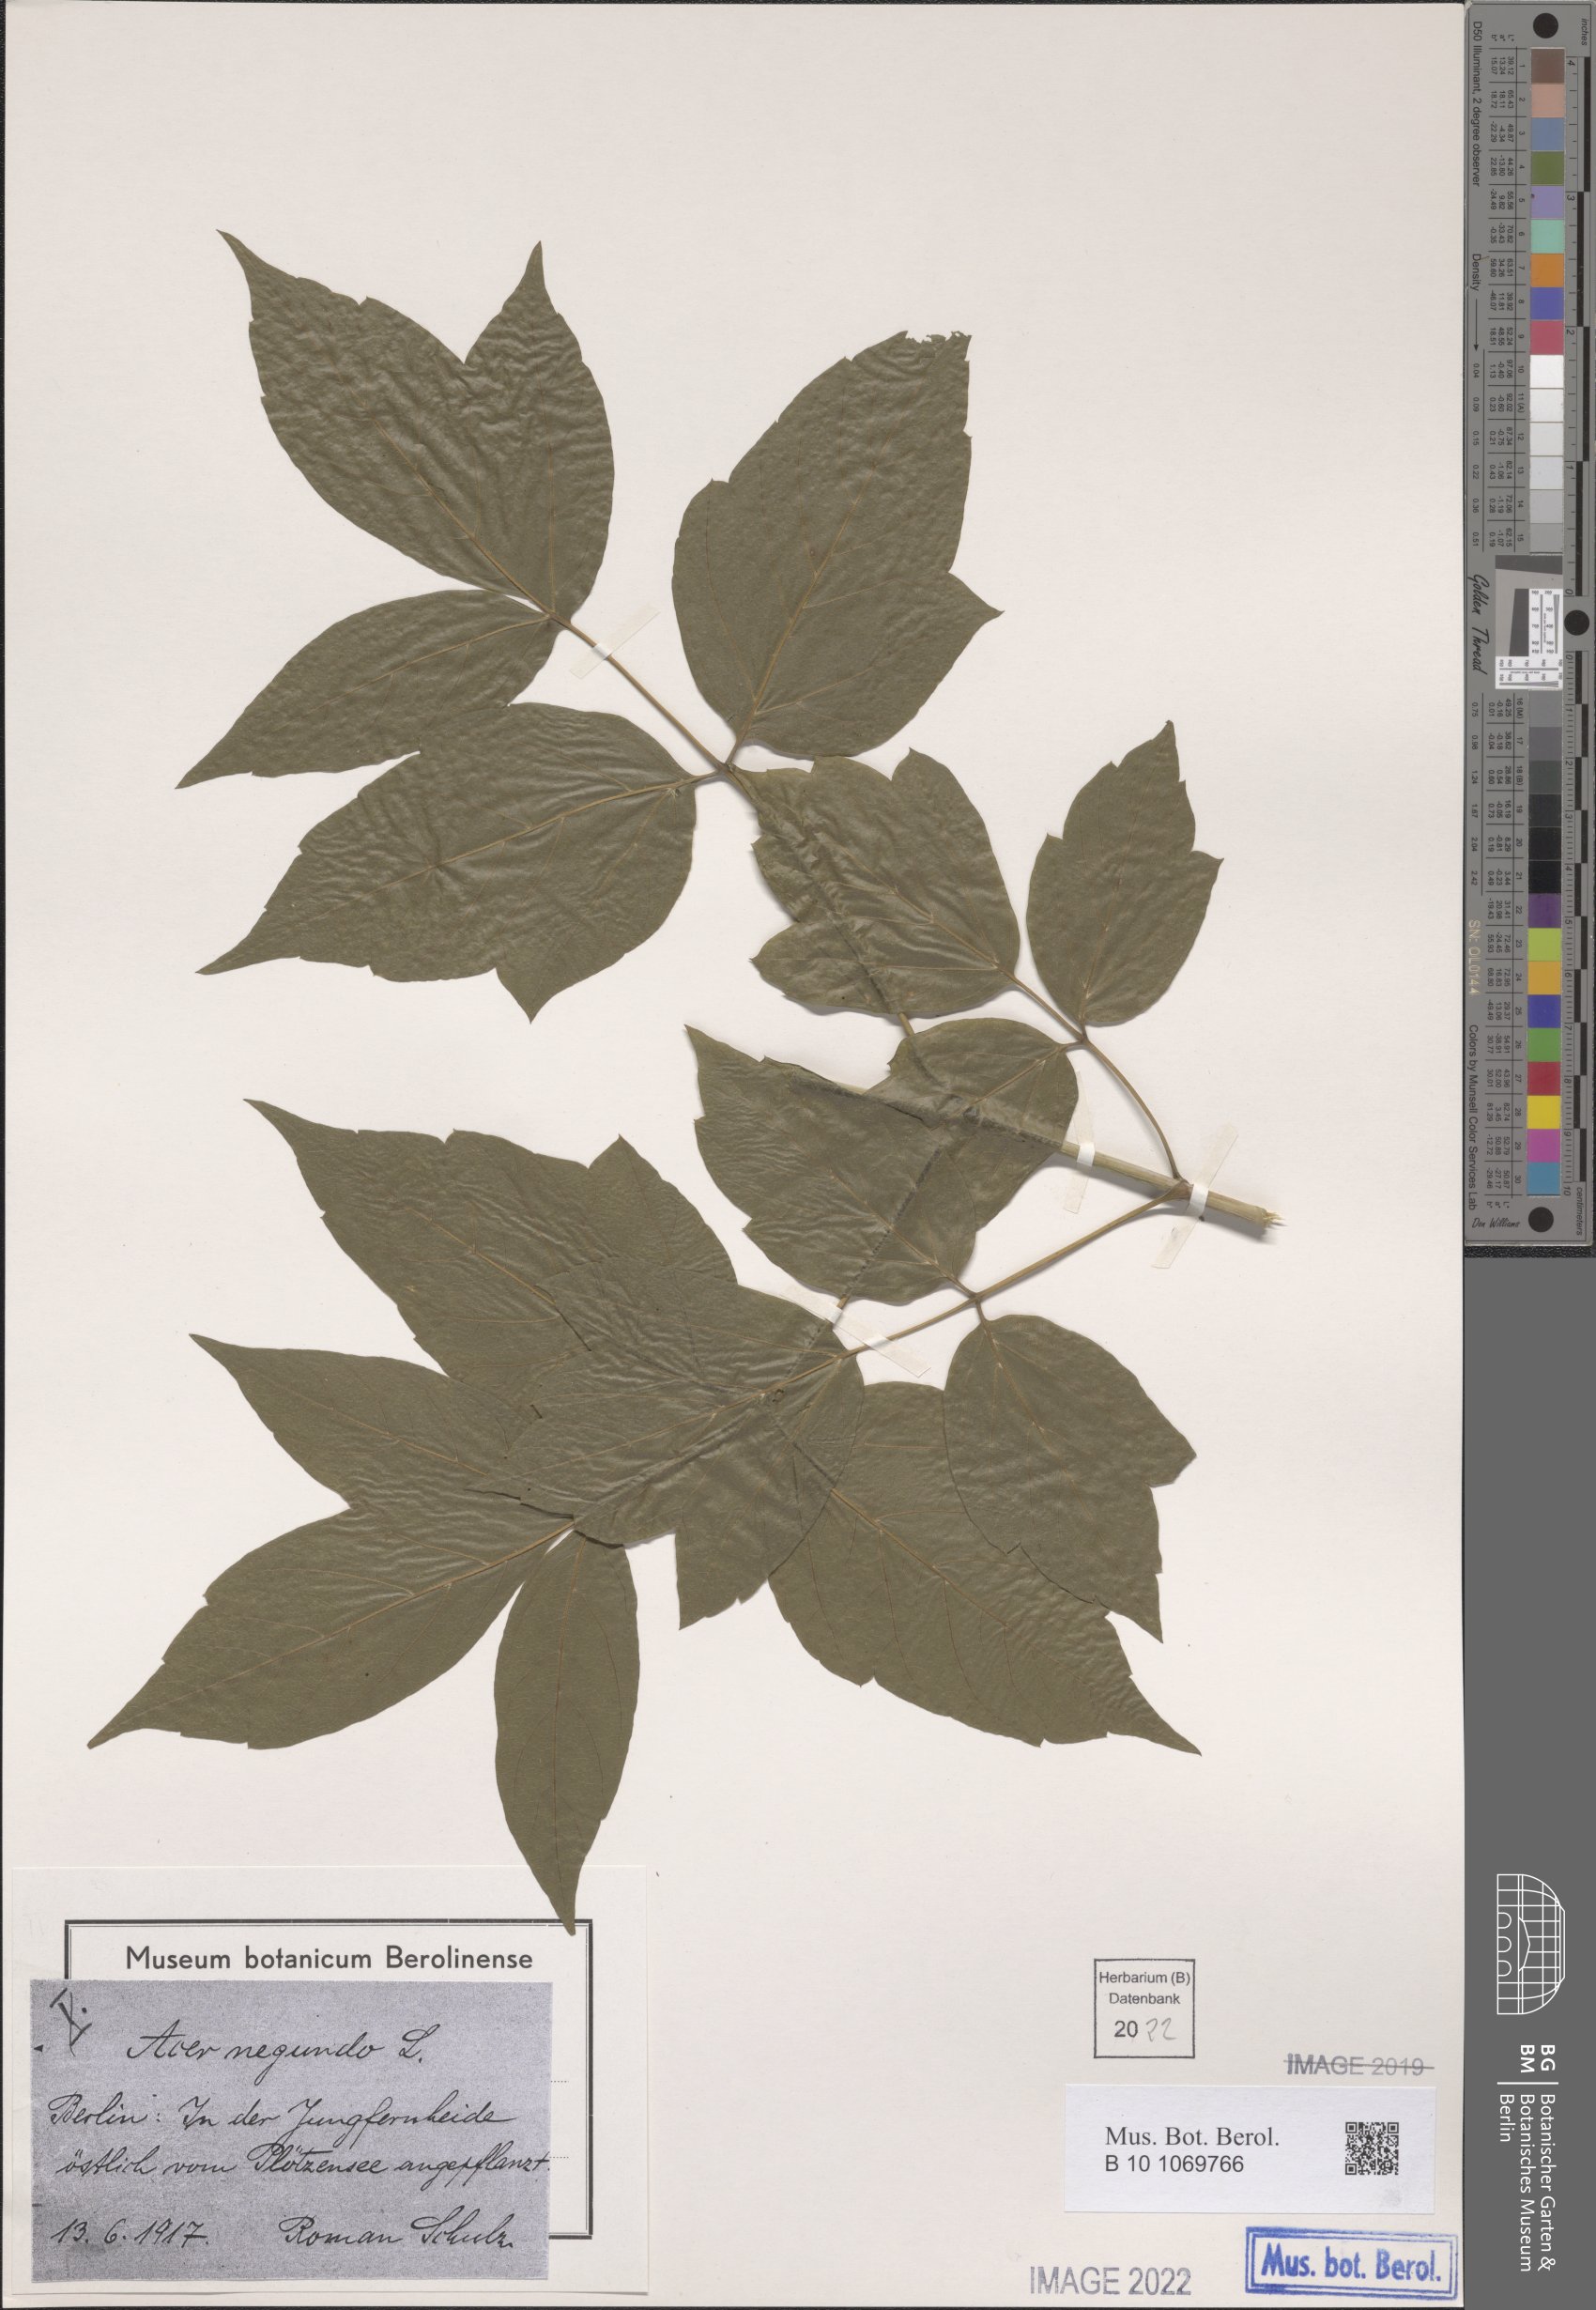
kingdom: Plantae
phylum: Tracheophyta
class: Magnoliopsida
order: Sapindales
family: Sapindaceae
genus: Acer
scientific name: Acer negundo
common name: Ashleaf maple
